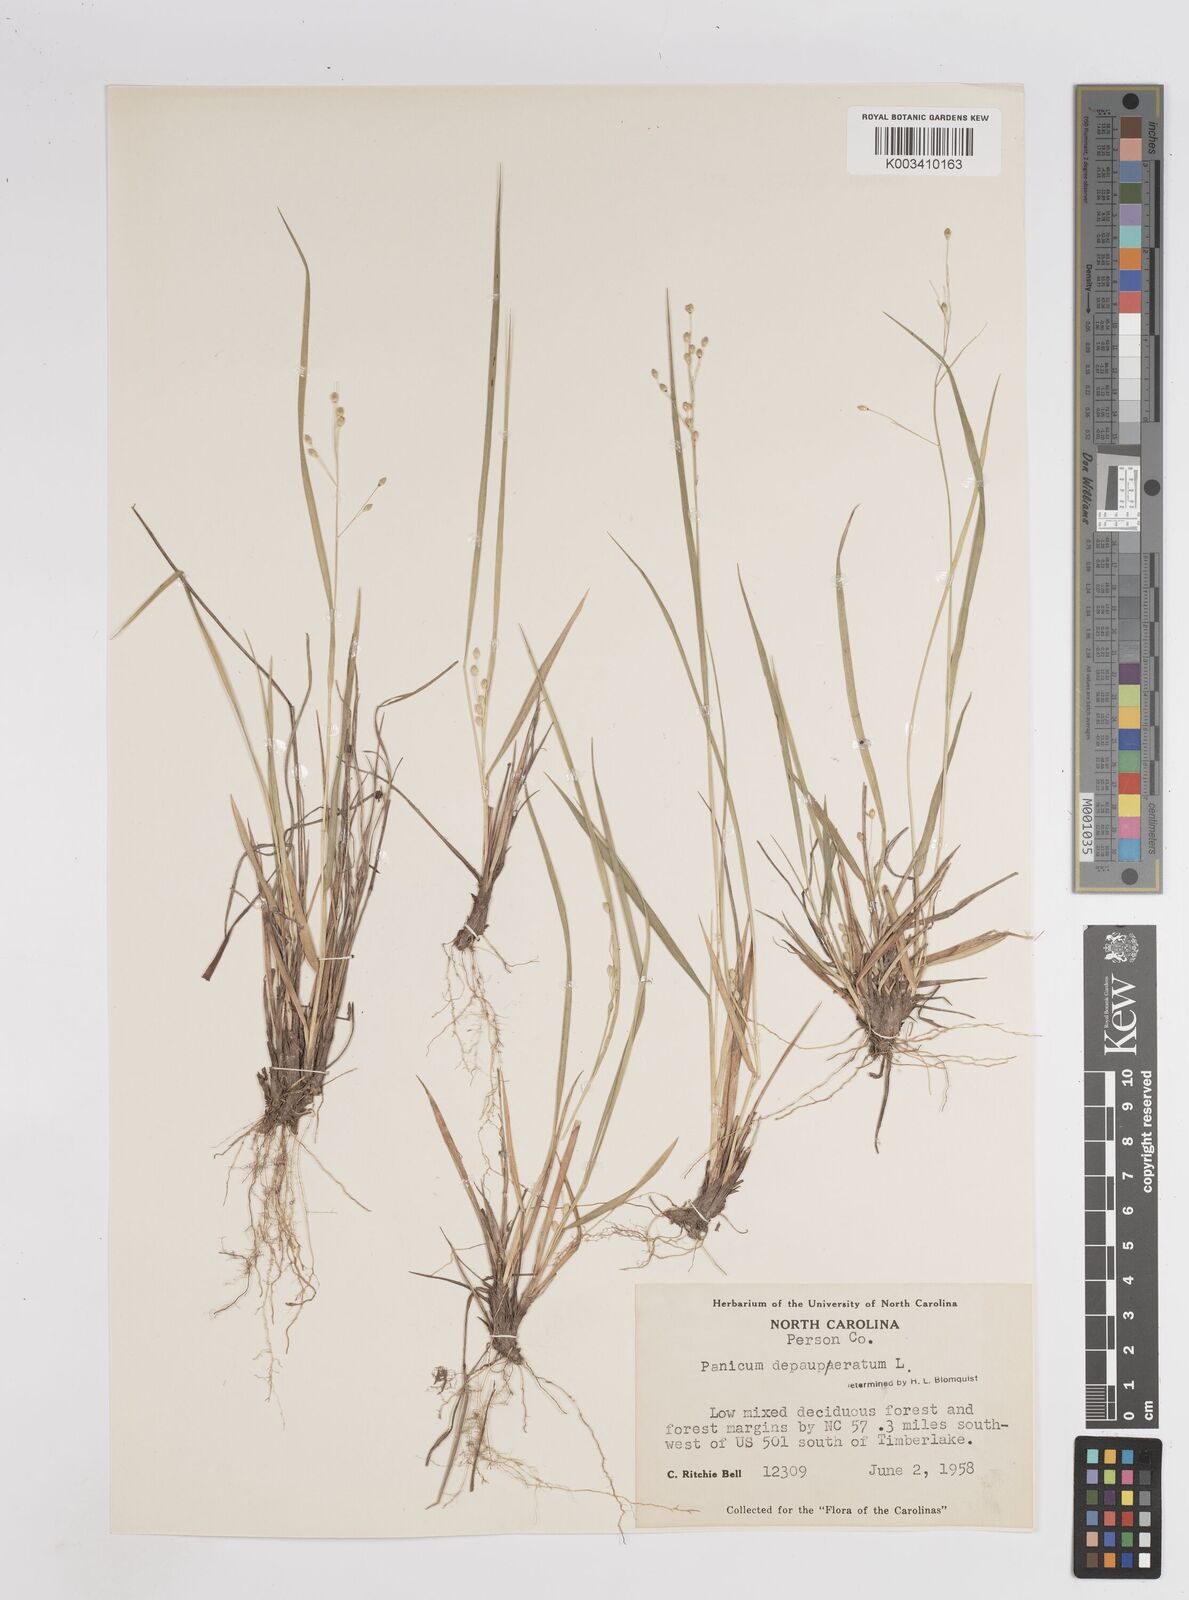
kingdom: Plantae
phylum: Tracheophyta
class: Liliopsida
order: Poales
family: Poaceae
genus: Dichanthelium
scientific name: Dichanthelium depauperatum
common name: Depauperate panicgrass
